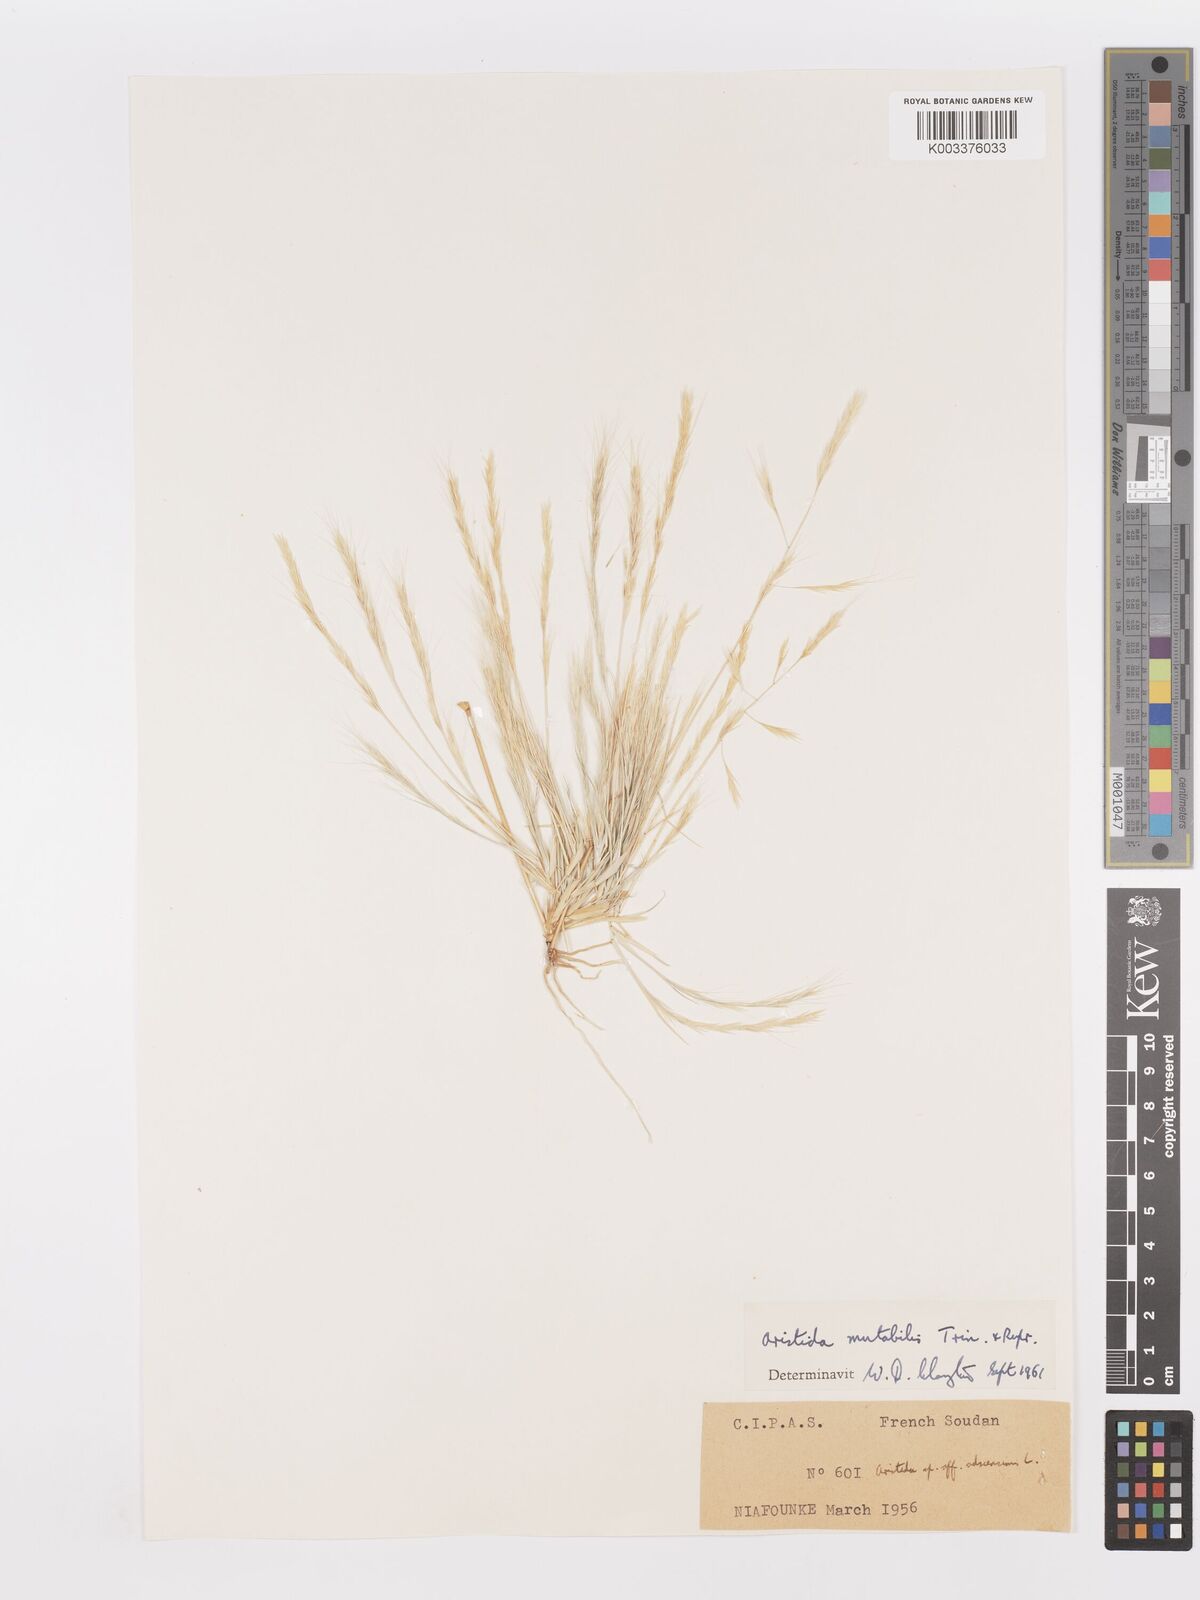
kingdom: Plantae
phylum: Tracheophyta
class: Liliopsida
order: Poales
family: Poaceae
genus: Aristida
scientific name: Aristida mutabilis
